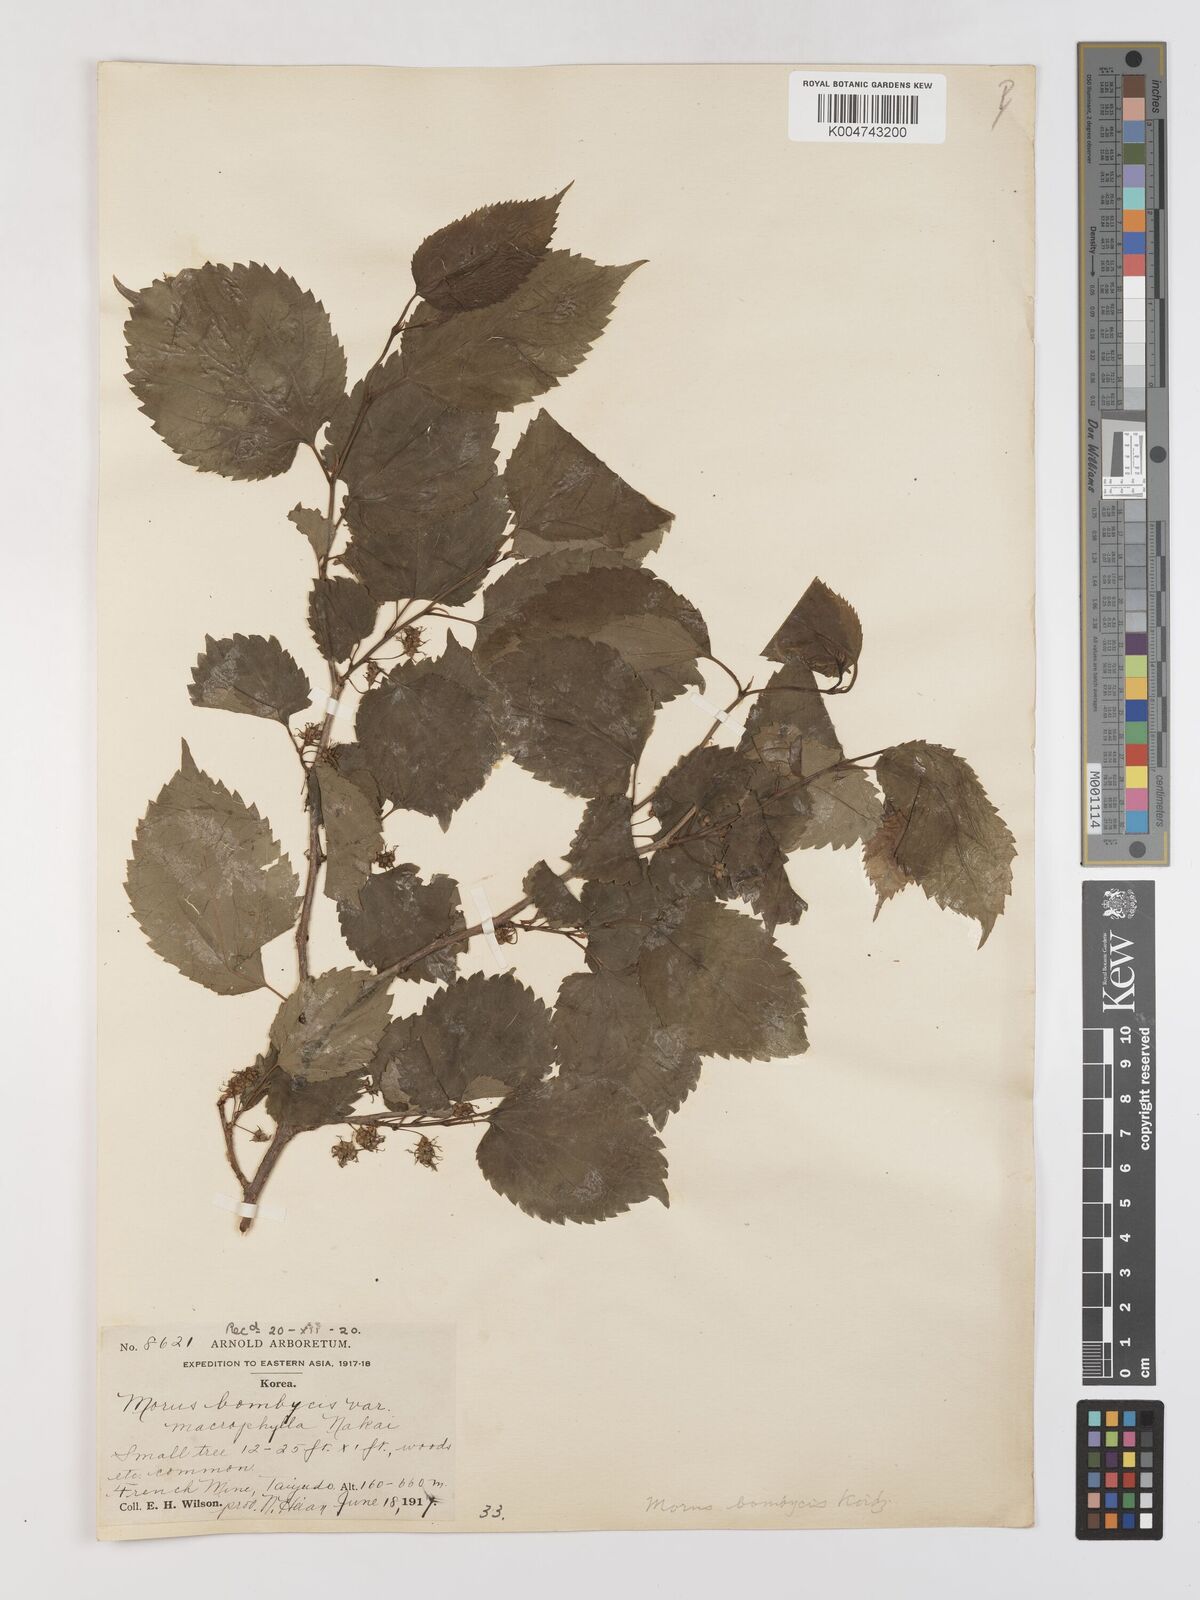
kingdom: Plantae
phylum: Tracheophyta
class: Magnoliopsida
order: Rosales
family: Moraceae
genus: Morus
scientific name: Morus indica
